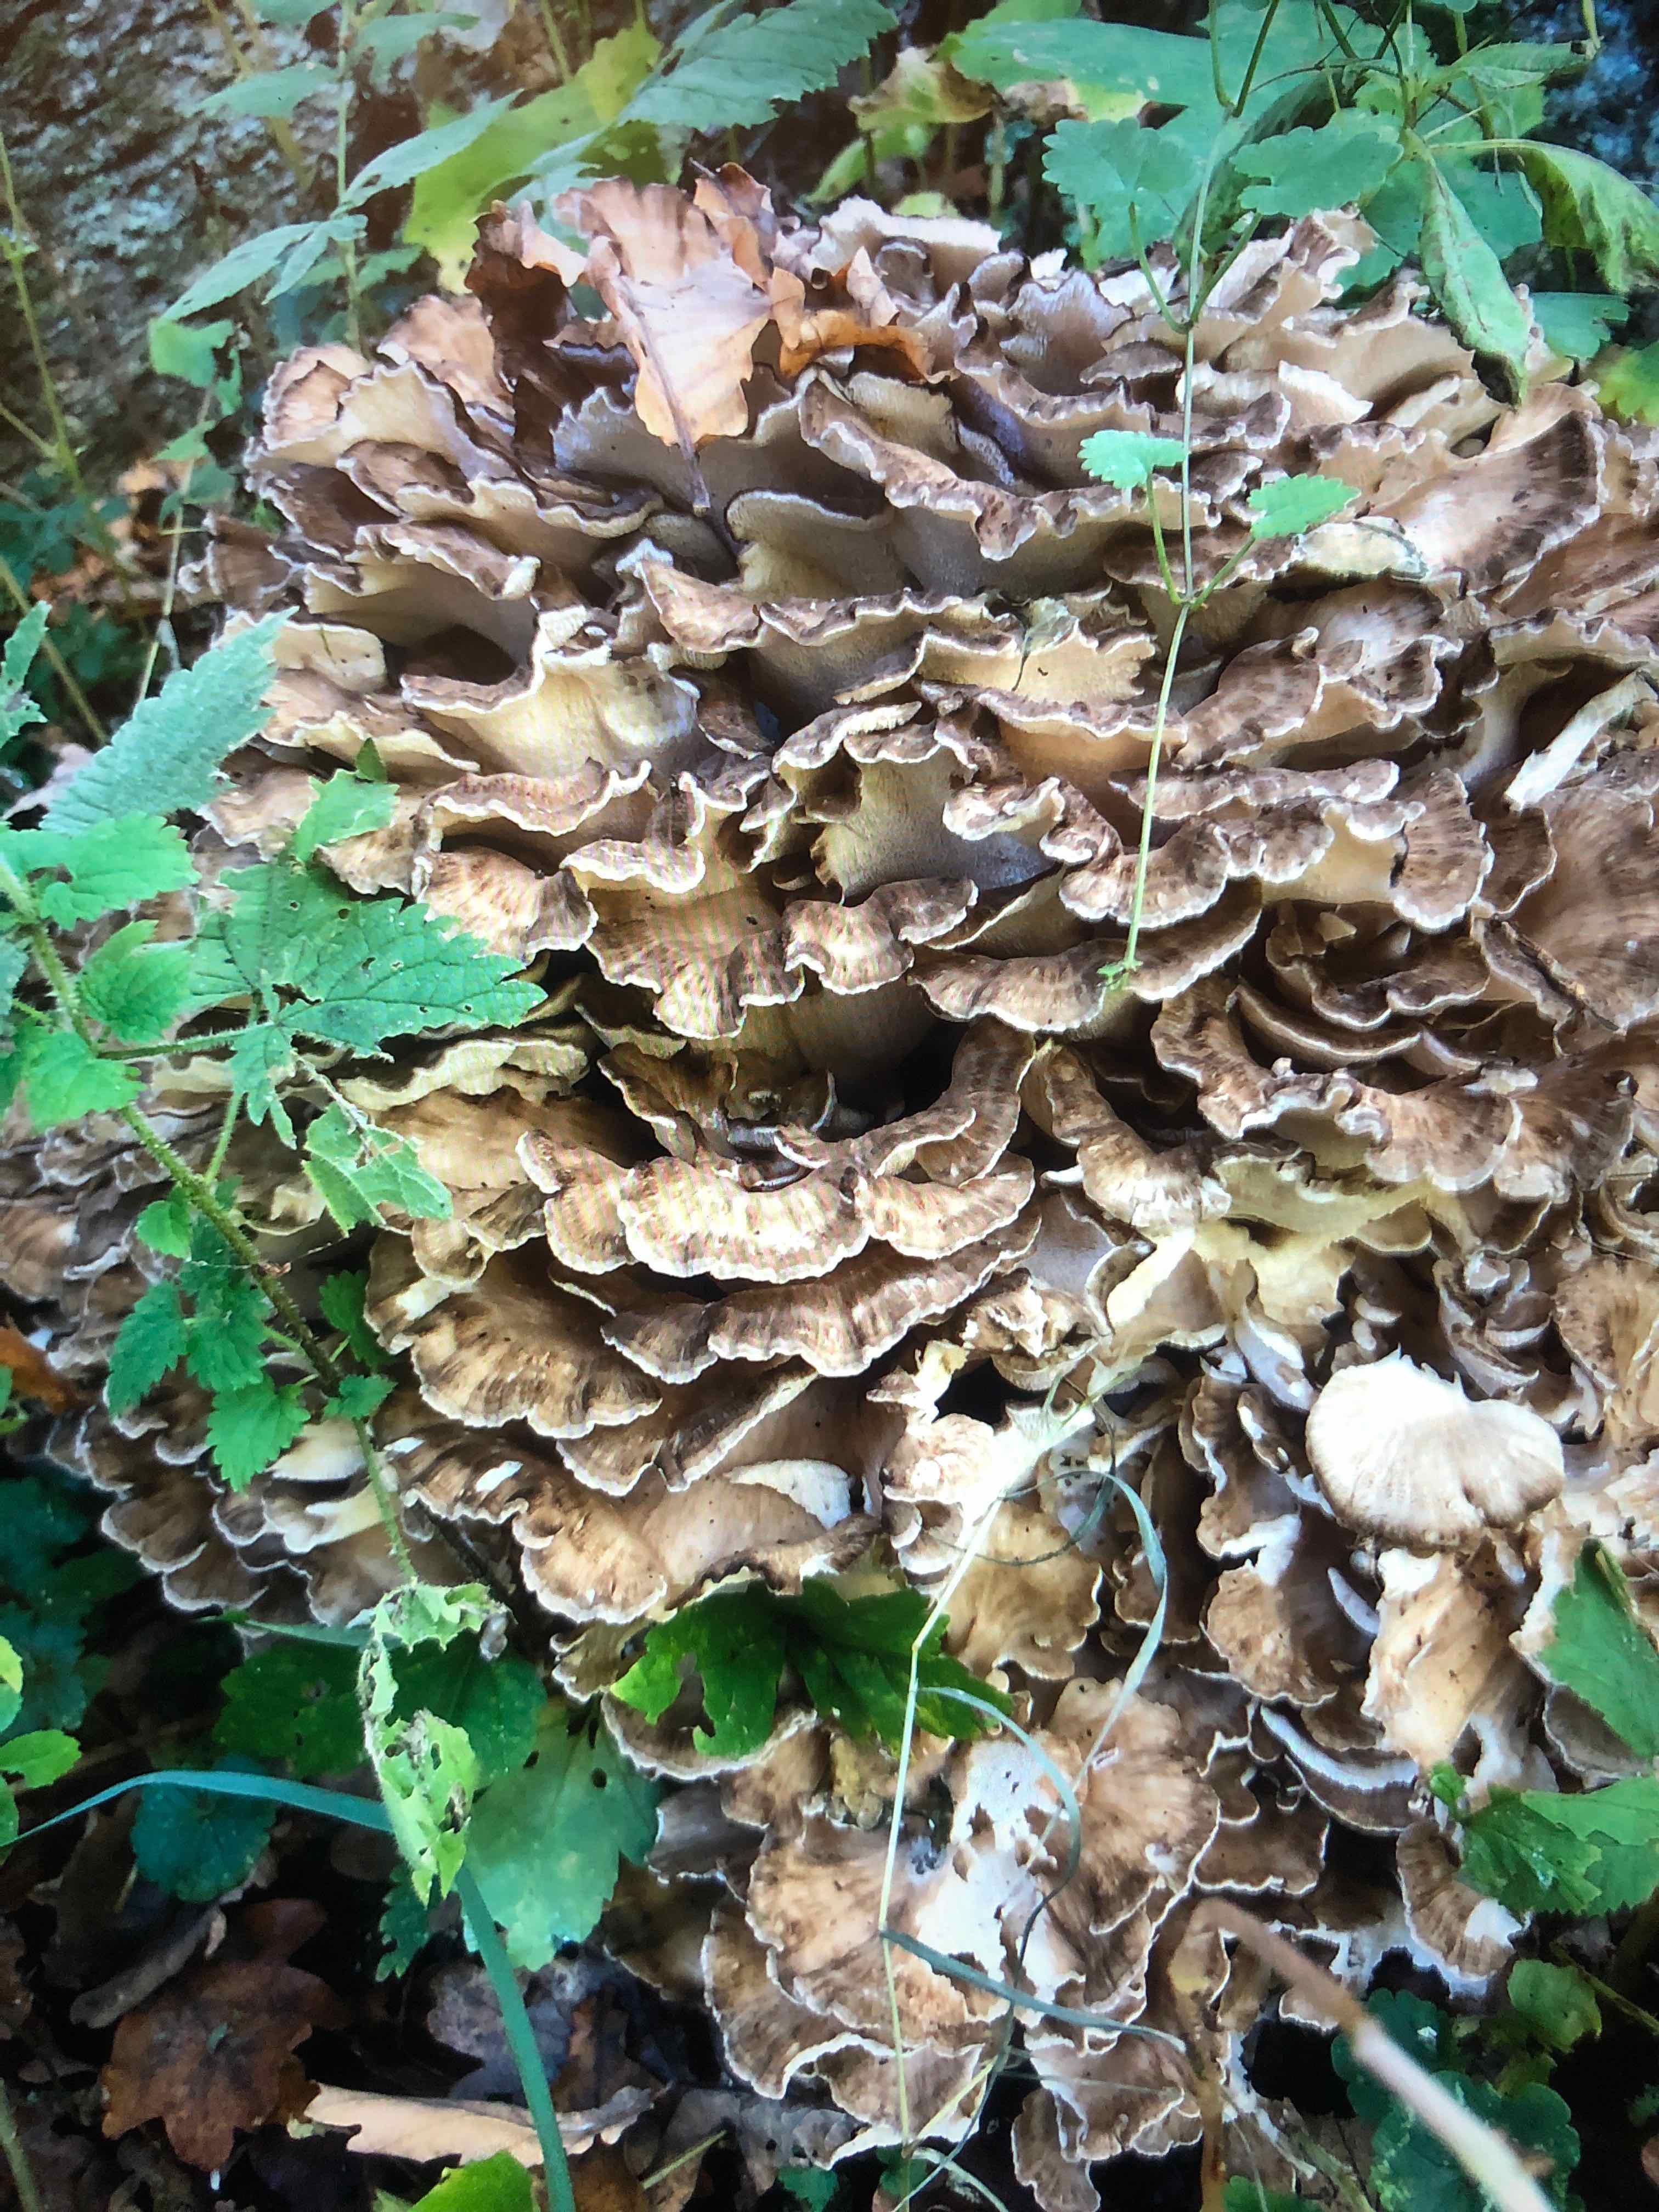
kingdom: Fungi
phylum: Basidiomycota
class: Agaricomycetes
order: Polyporales
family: Grifolaceae
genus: Grifola
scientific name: Grifola frondosa
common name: tueporesvamp
